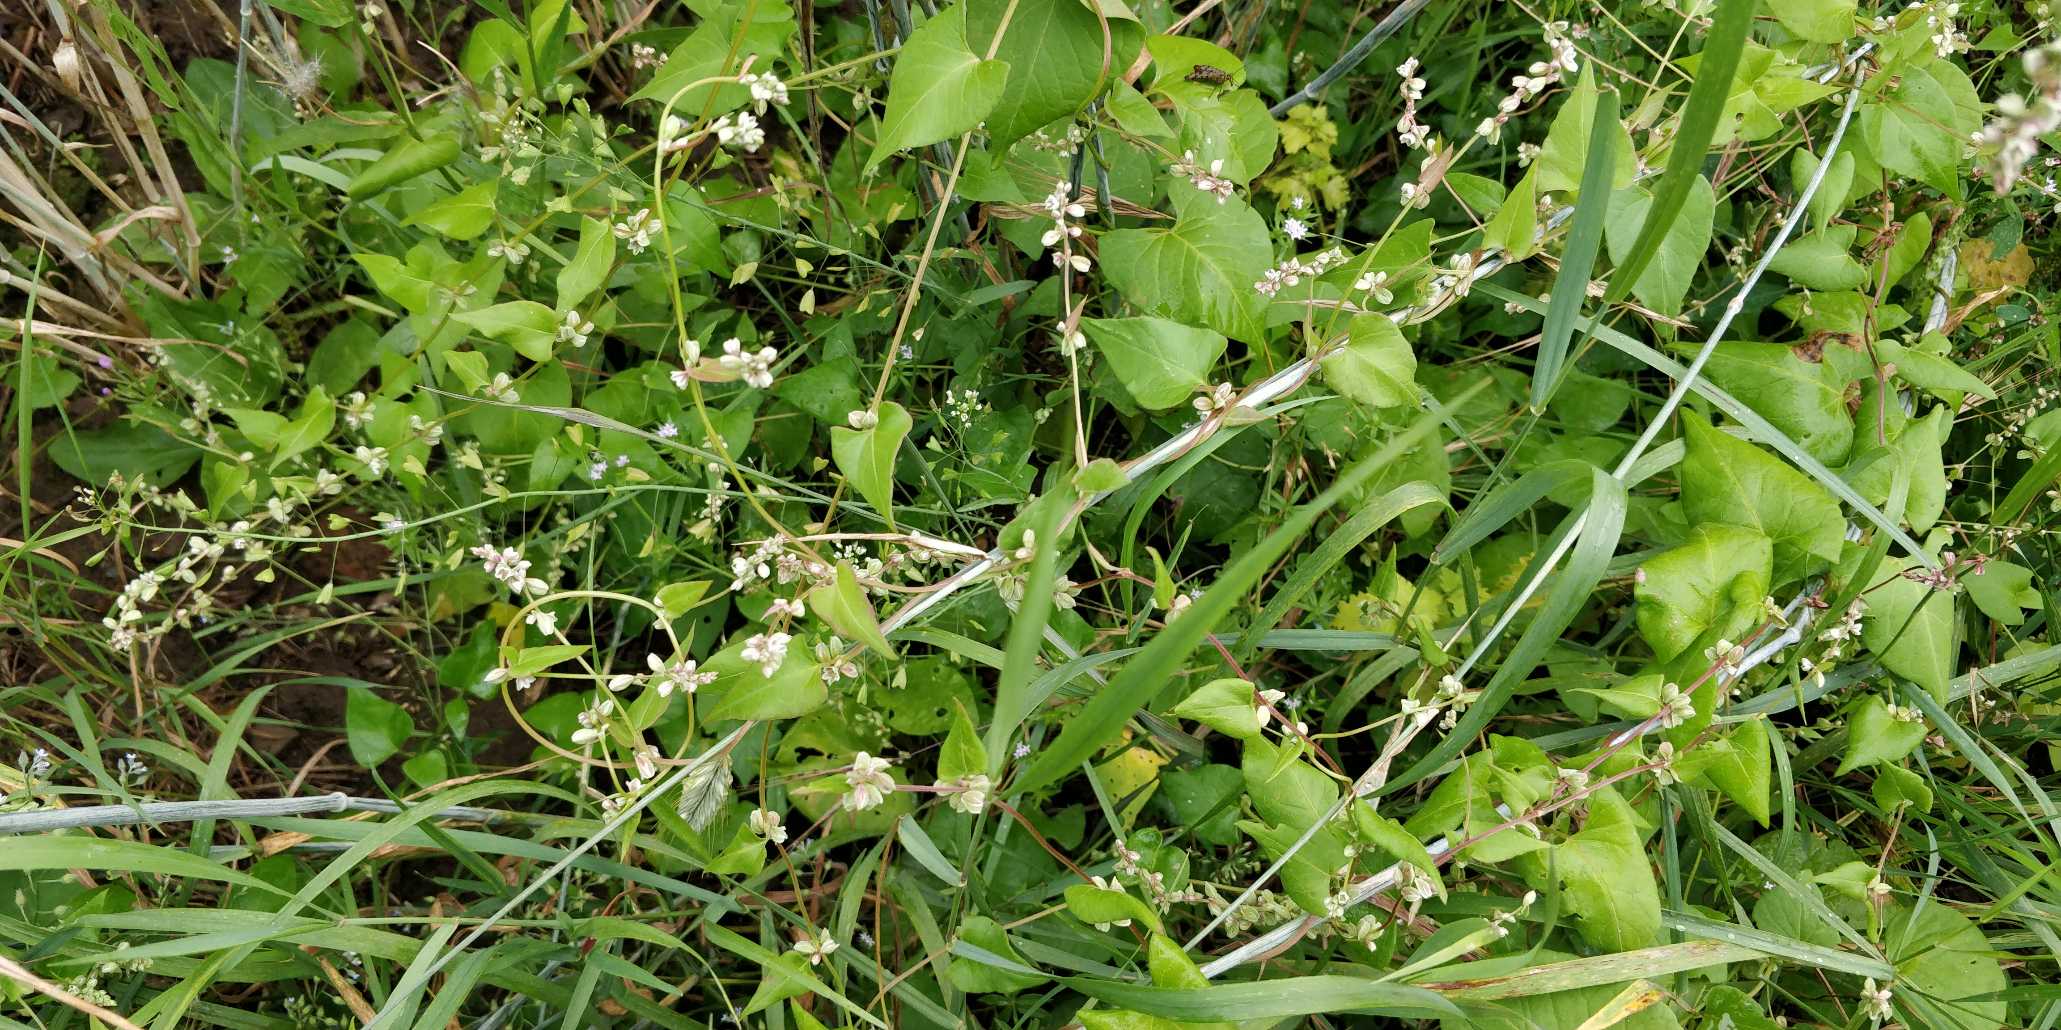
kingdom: Plantae
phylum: Tracheophyta
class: Magnoliopsida
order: Caryophyllales
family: Polygonaceae
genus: Fallopia
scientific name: Fallopia convolvulus
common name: Snerle-pileurt
